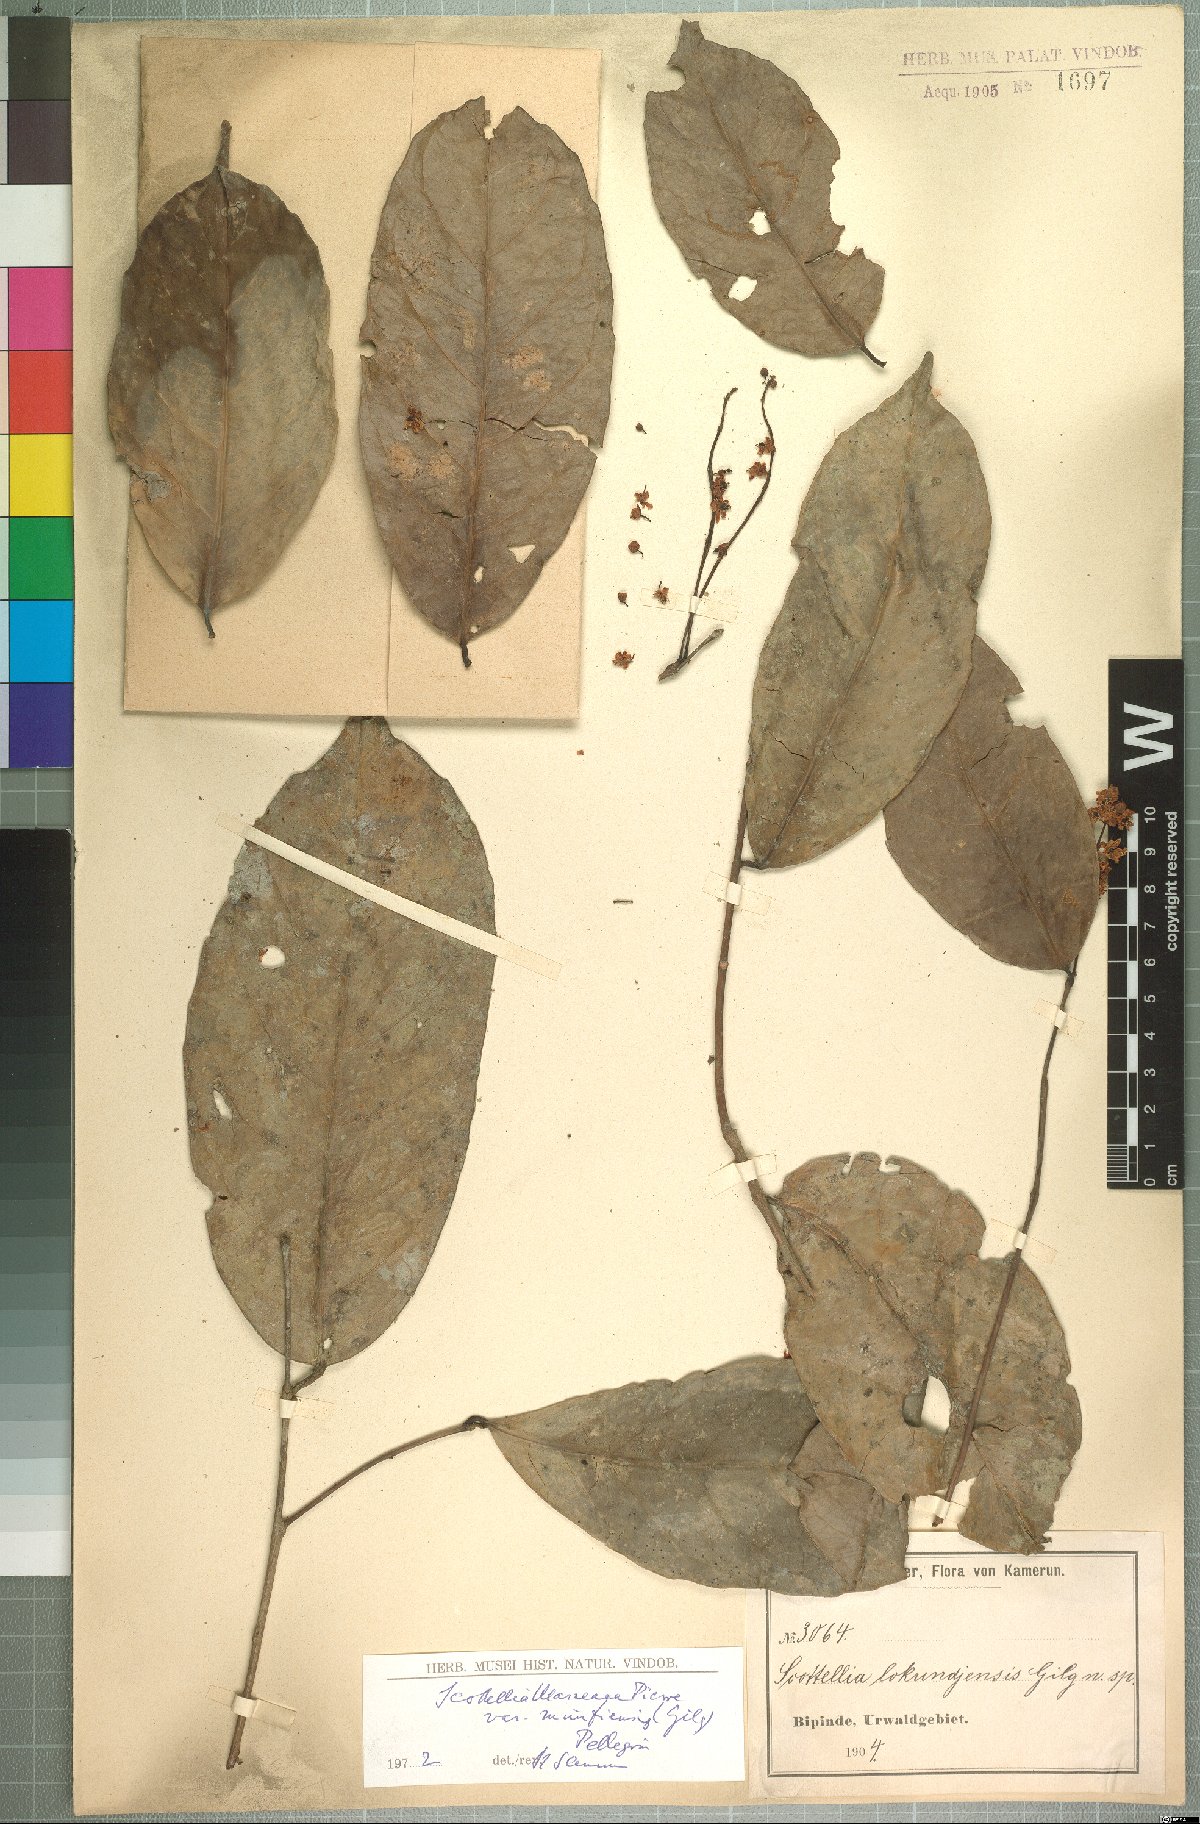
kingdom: Plantae
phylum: Tracheophyta
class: Magnoliopsida
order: Malpighiales
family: Achariaceae
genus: Scottellia
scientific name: Scottellia klaineana
